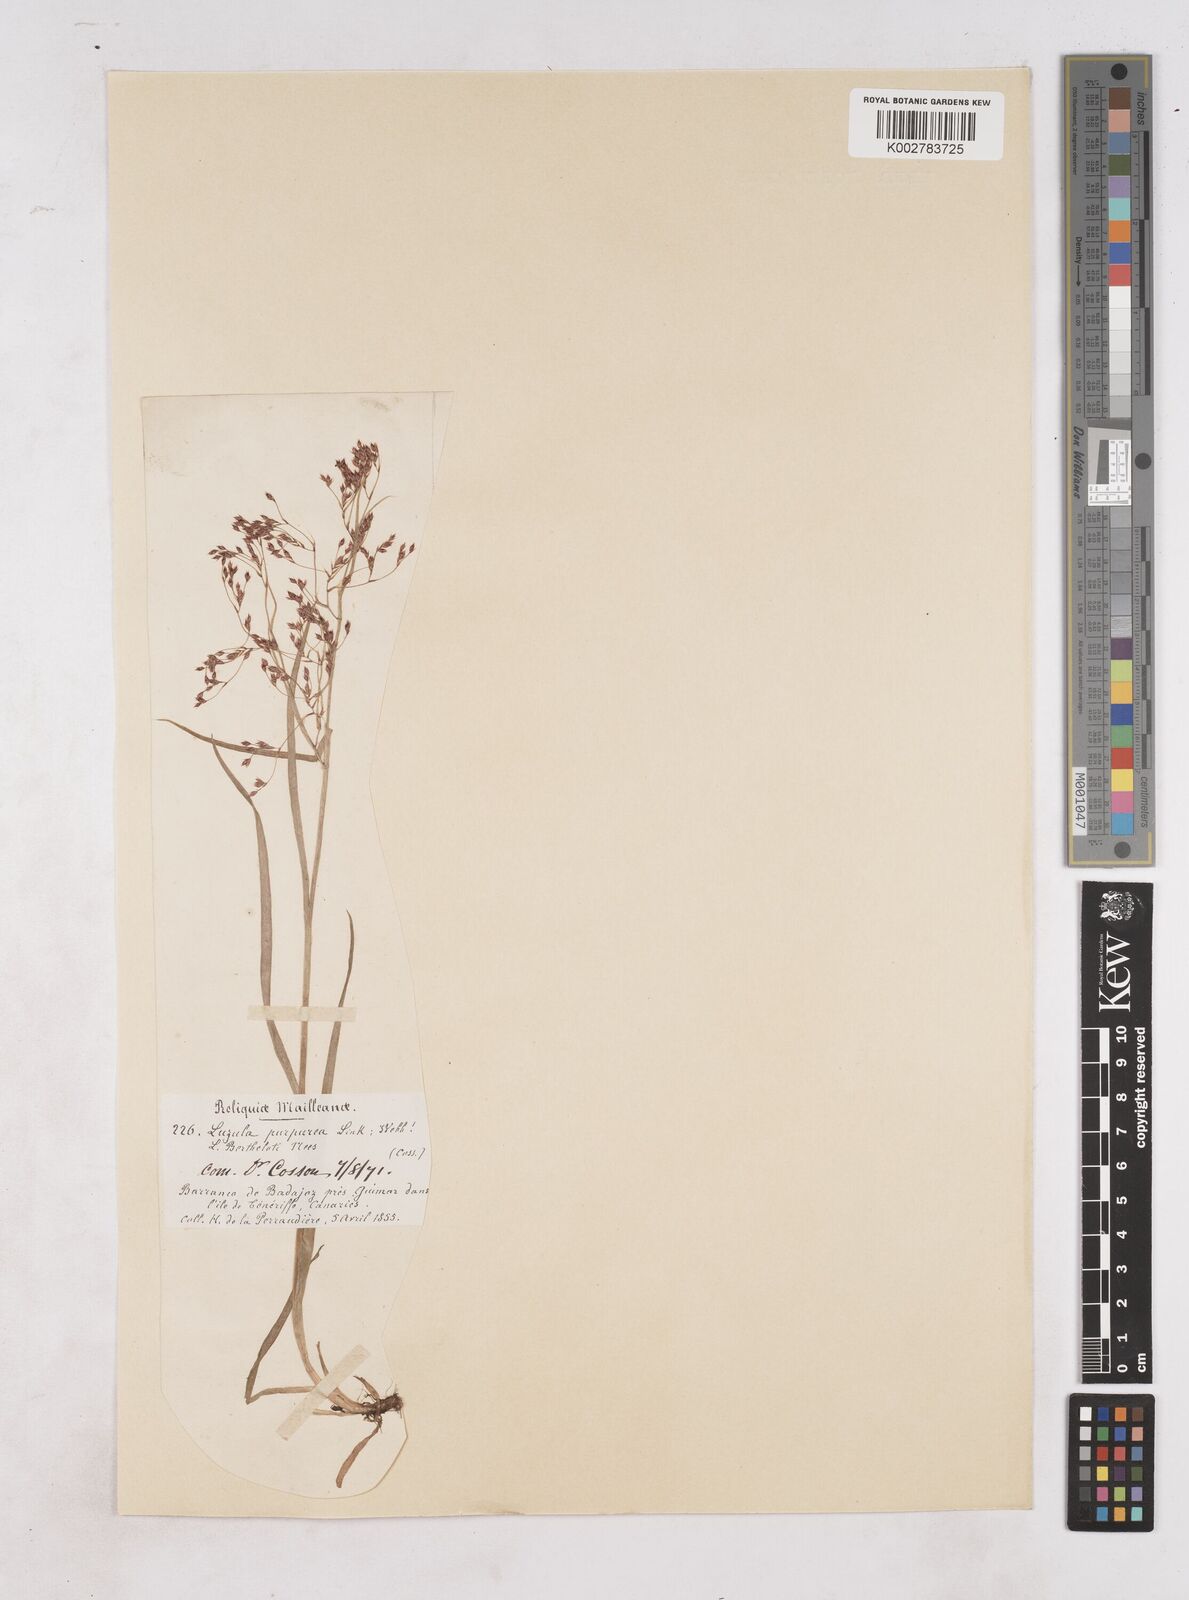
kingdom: Plantae
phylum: Tracheophyta
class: Liliopsida
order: Poales
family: Juncaceae
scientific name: Juncaceae
